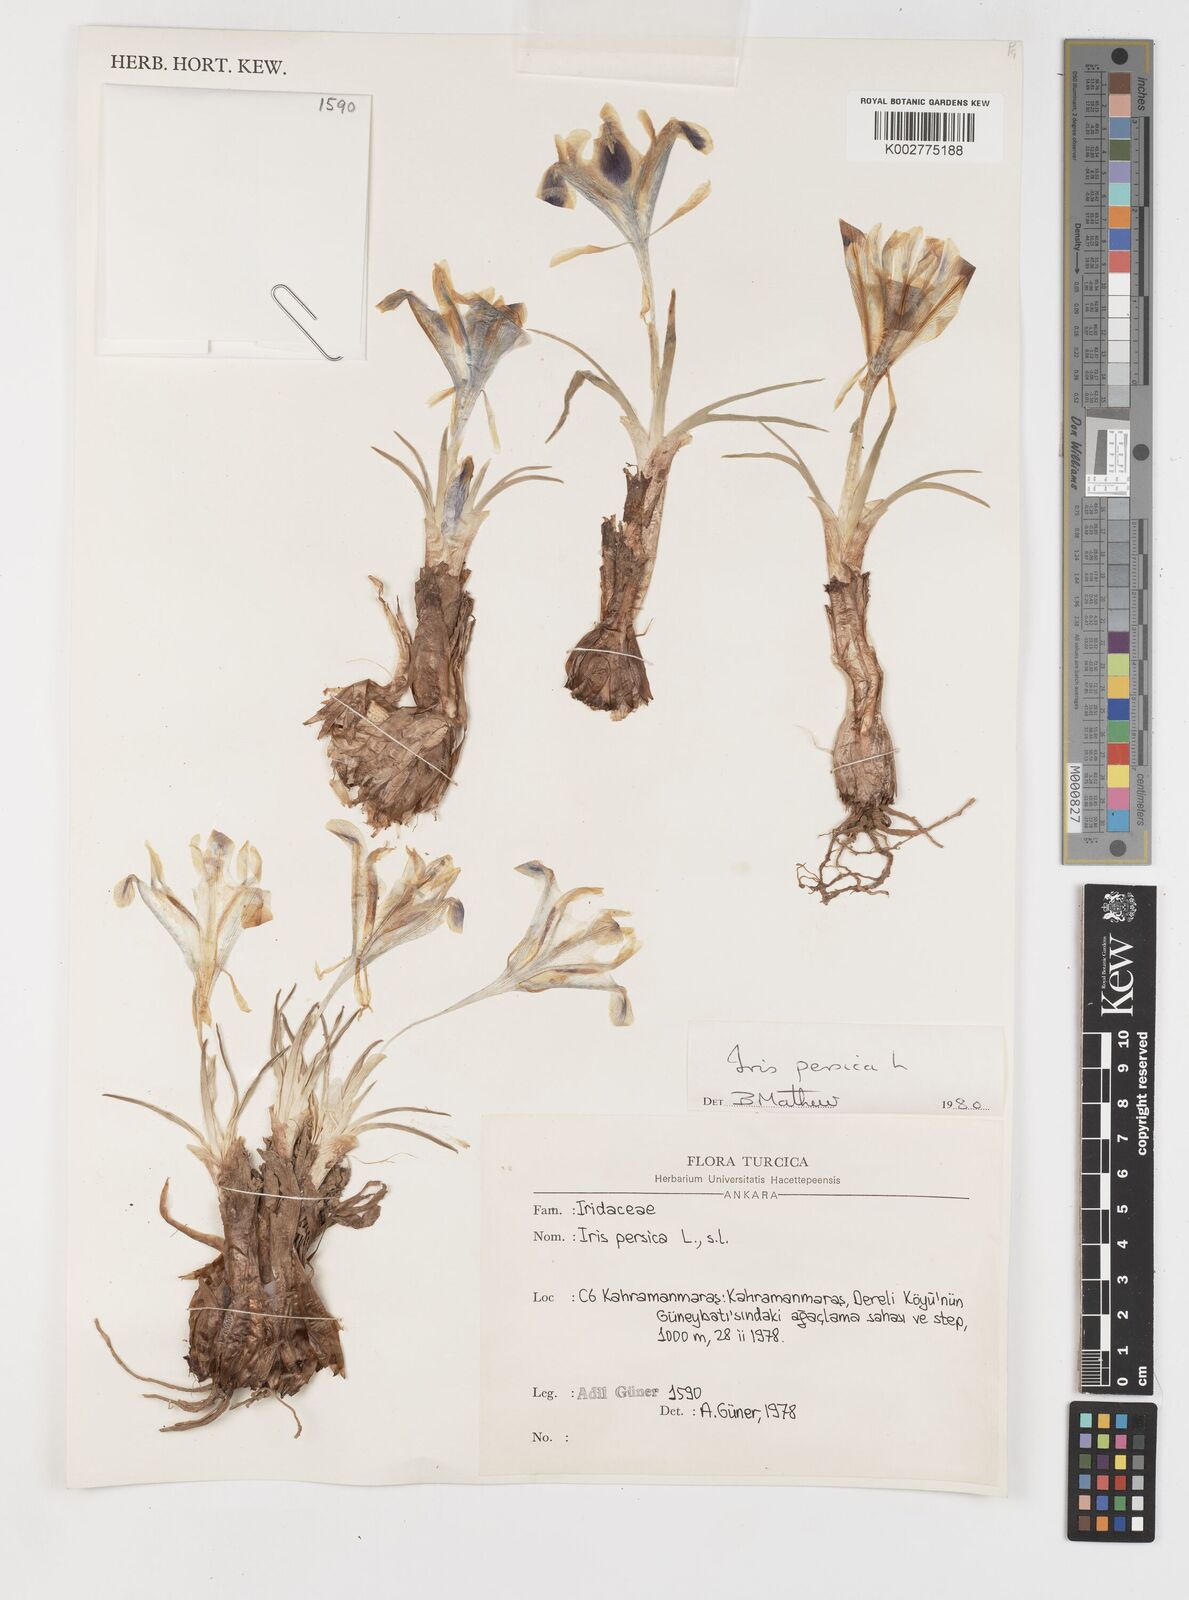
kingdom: Plantae
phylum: Tracheophyta
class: Liliopsida
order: Asparagales
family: Iridaceae
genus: Iris
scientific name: Iris persica
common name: Persian iris
